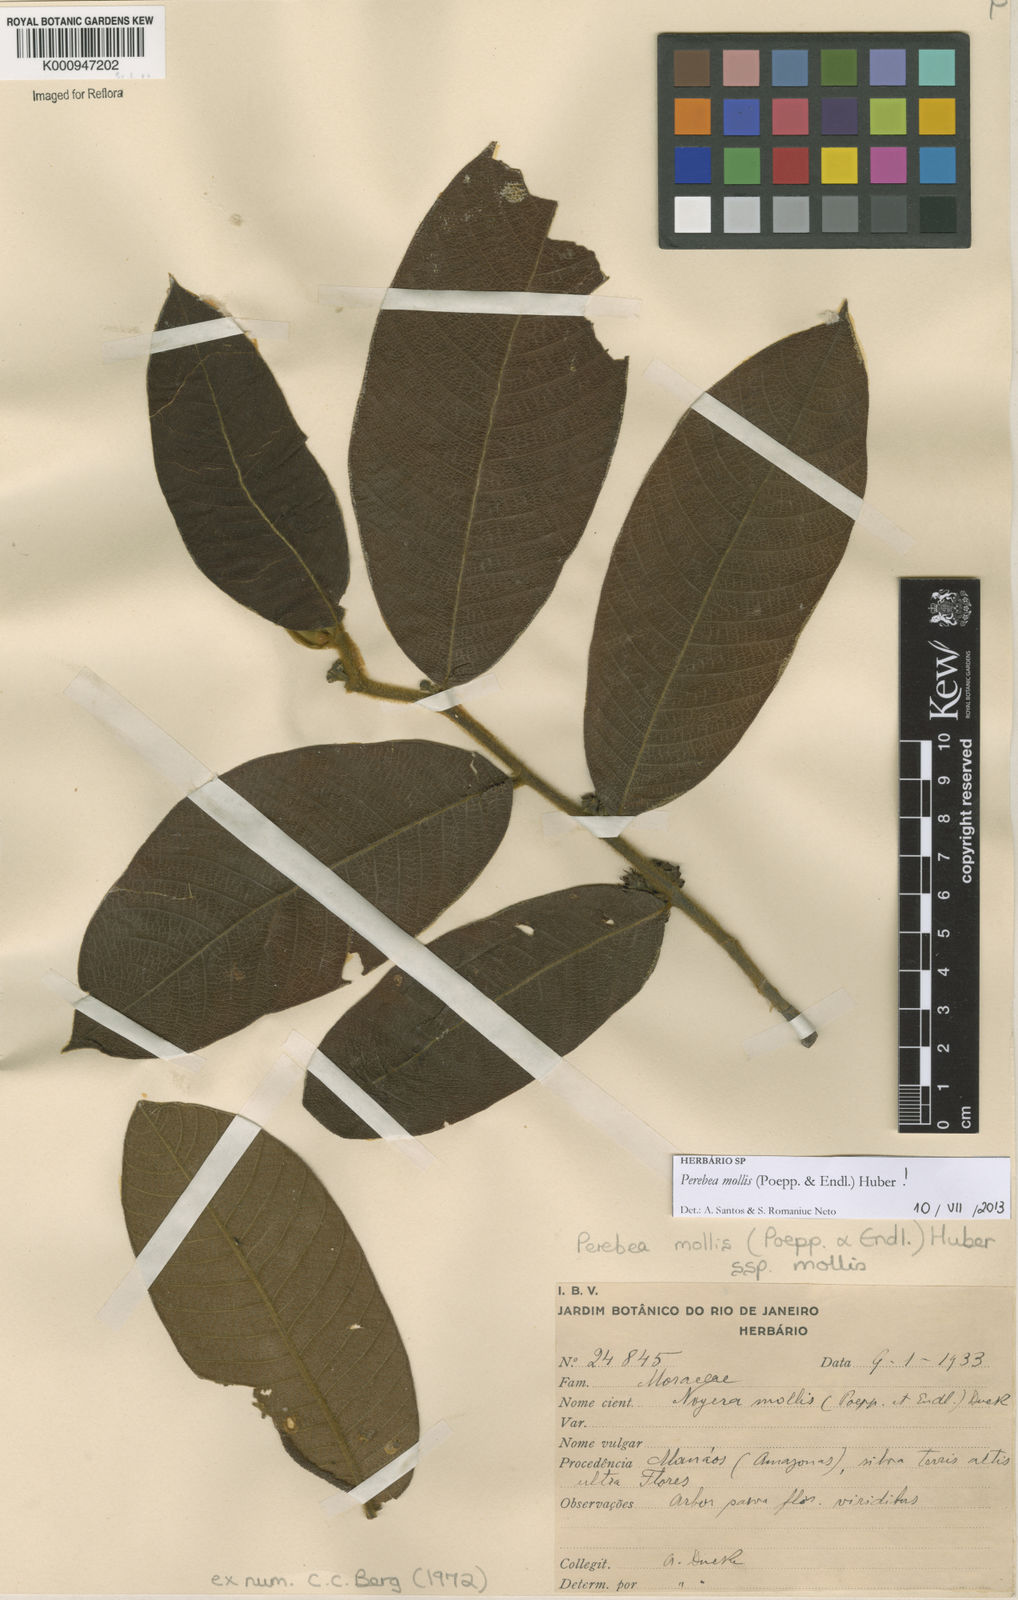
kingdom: Plantae
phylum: Tracheophyta
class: Magnoliopsida
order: Rosales
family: Moraceae
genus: Perebea
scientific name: Perebea mollis
